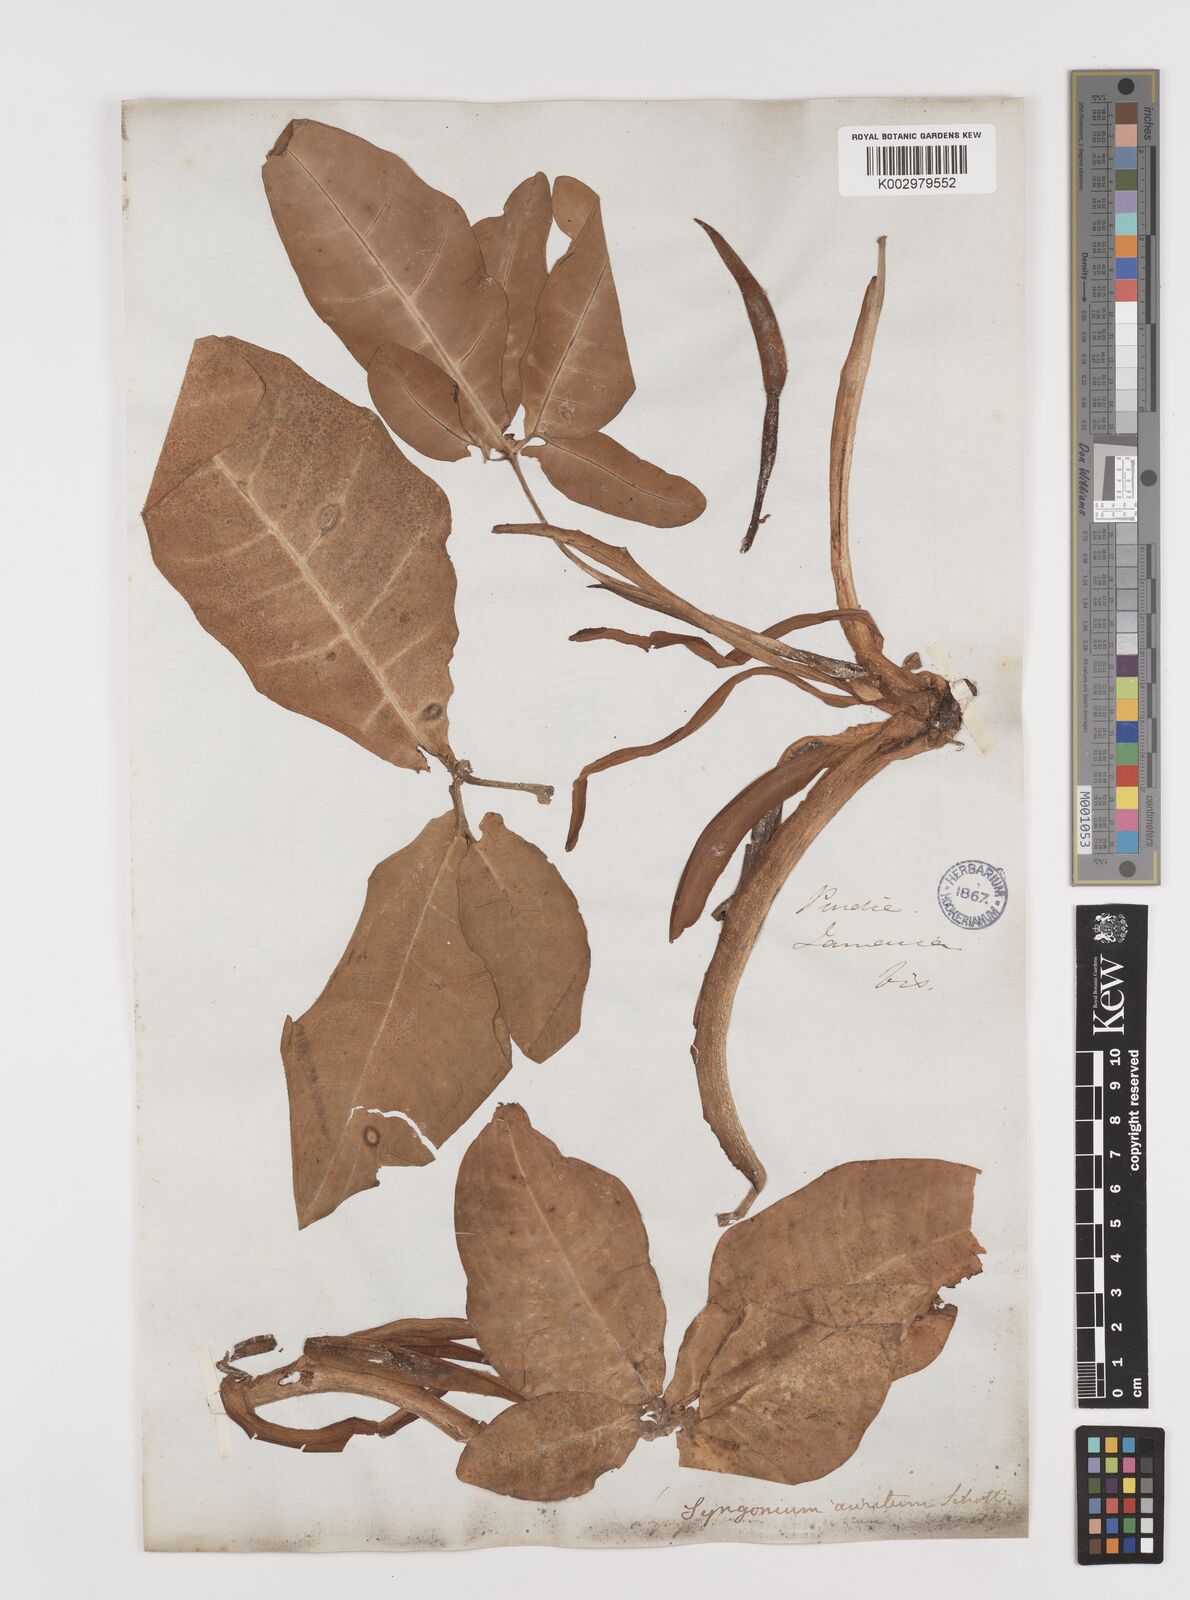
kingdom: Plantae
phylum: Tracheophyta
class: Liliopsida
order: Alismatales
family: Araceae
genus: Syngonium
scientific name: Syngonium auritum
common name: Five-fingers
